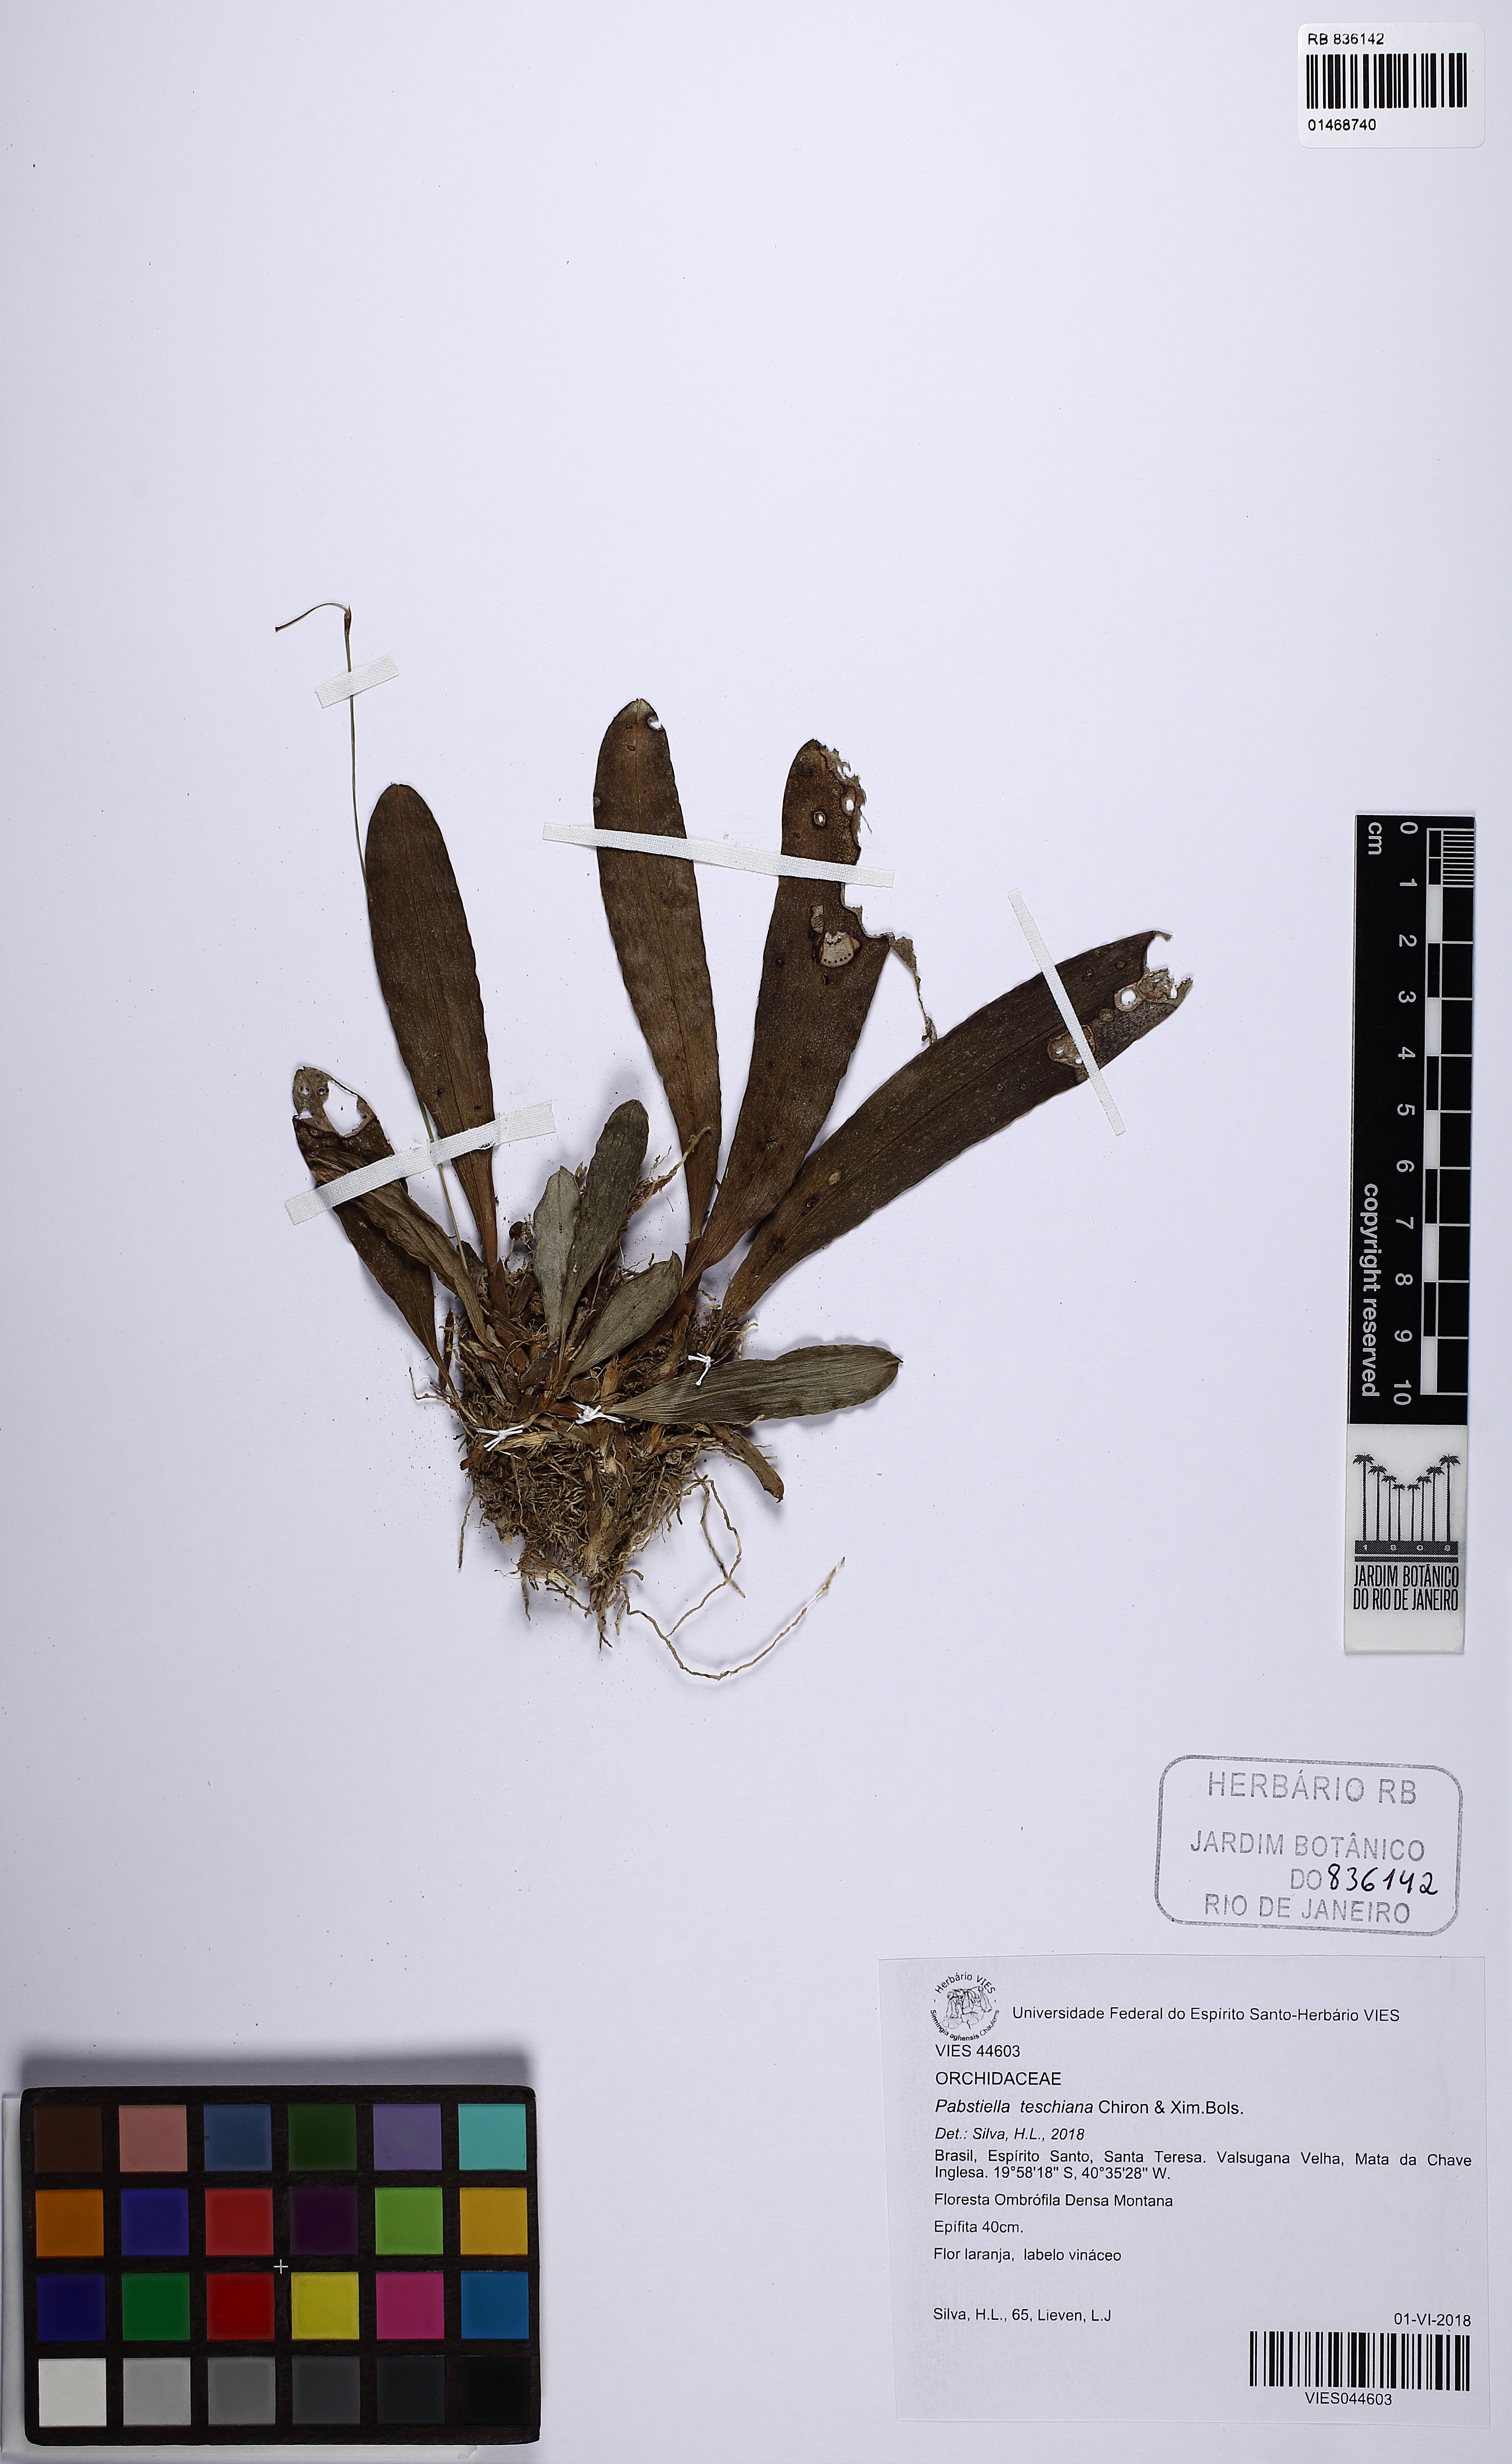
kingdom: Plantae
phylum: Tracheophyta
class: Liliopsida
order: Asparagales
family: Orchidaceae
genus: Pabstiella
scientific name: Pabstiella teschiana
